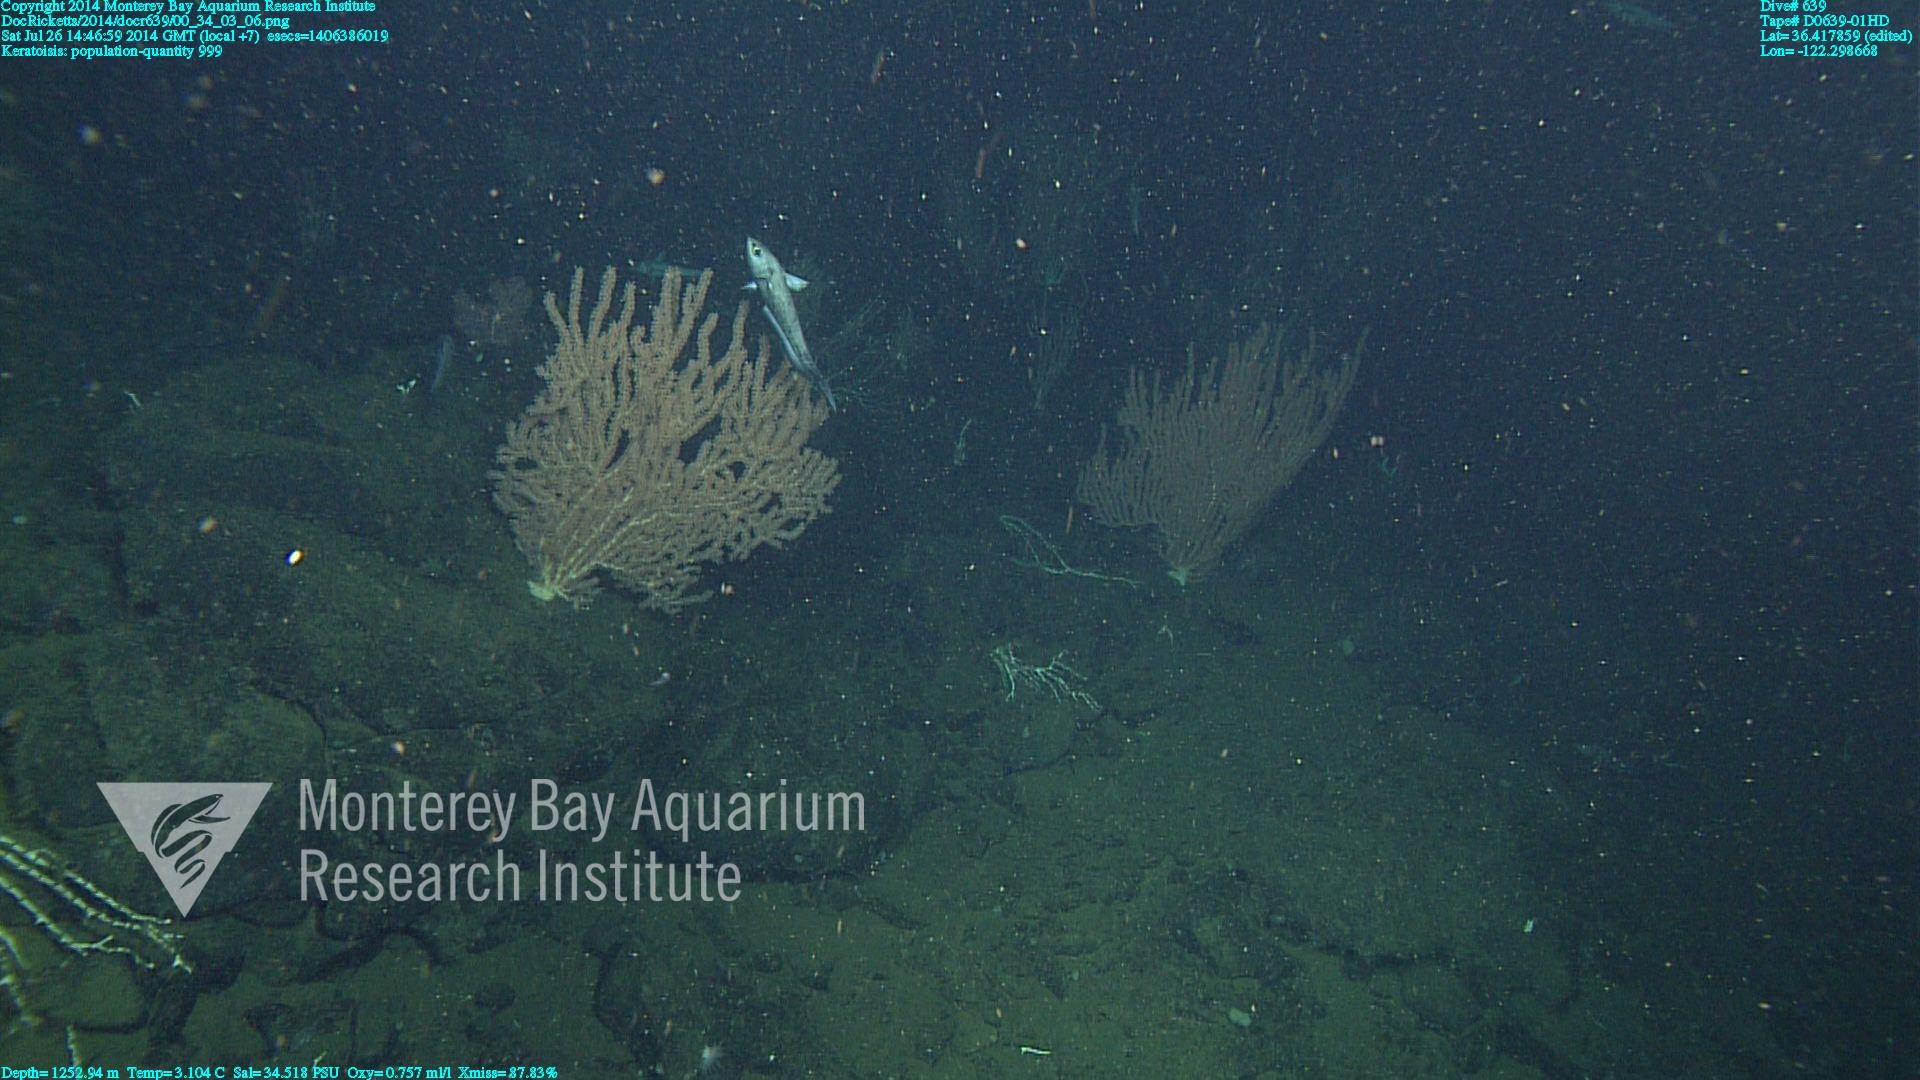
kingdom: Animalia
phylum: Cnidaria
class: Anthozoa
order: Scleralcyonacea
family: Keratoisididae
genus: Keratoisis
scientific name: Keratoisis
